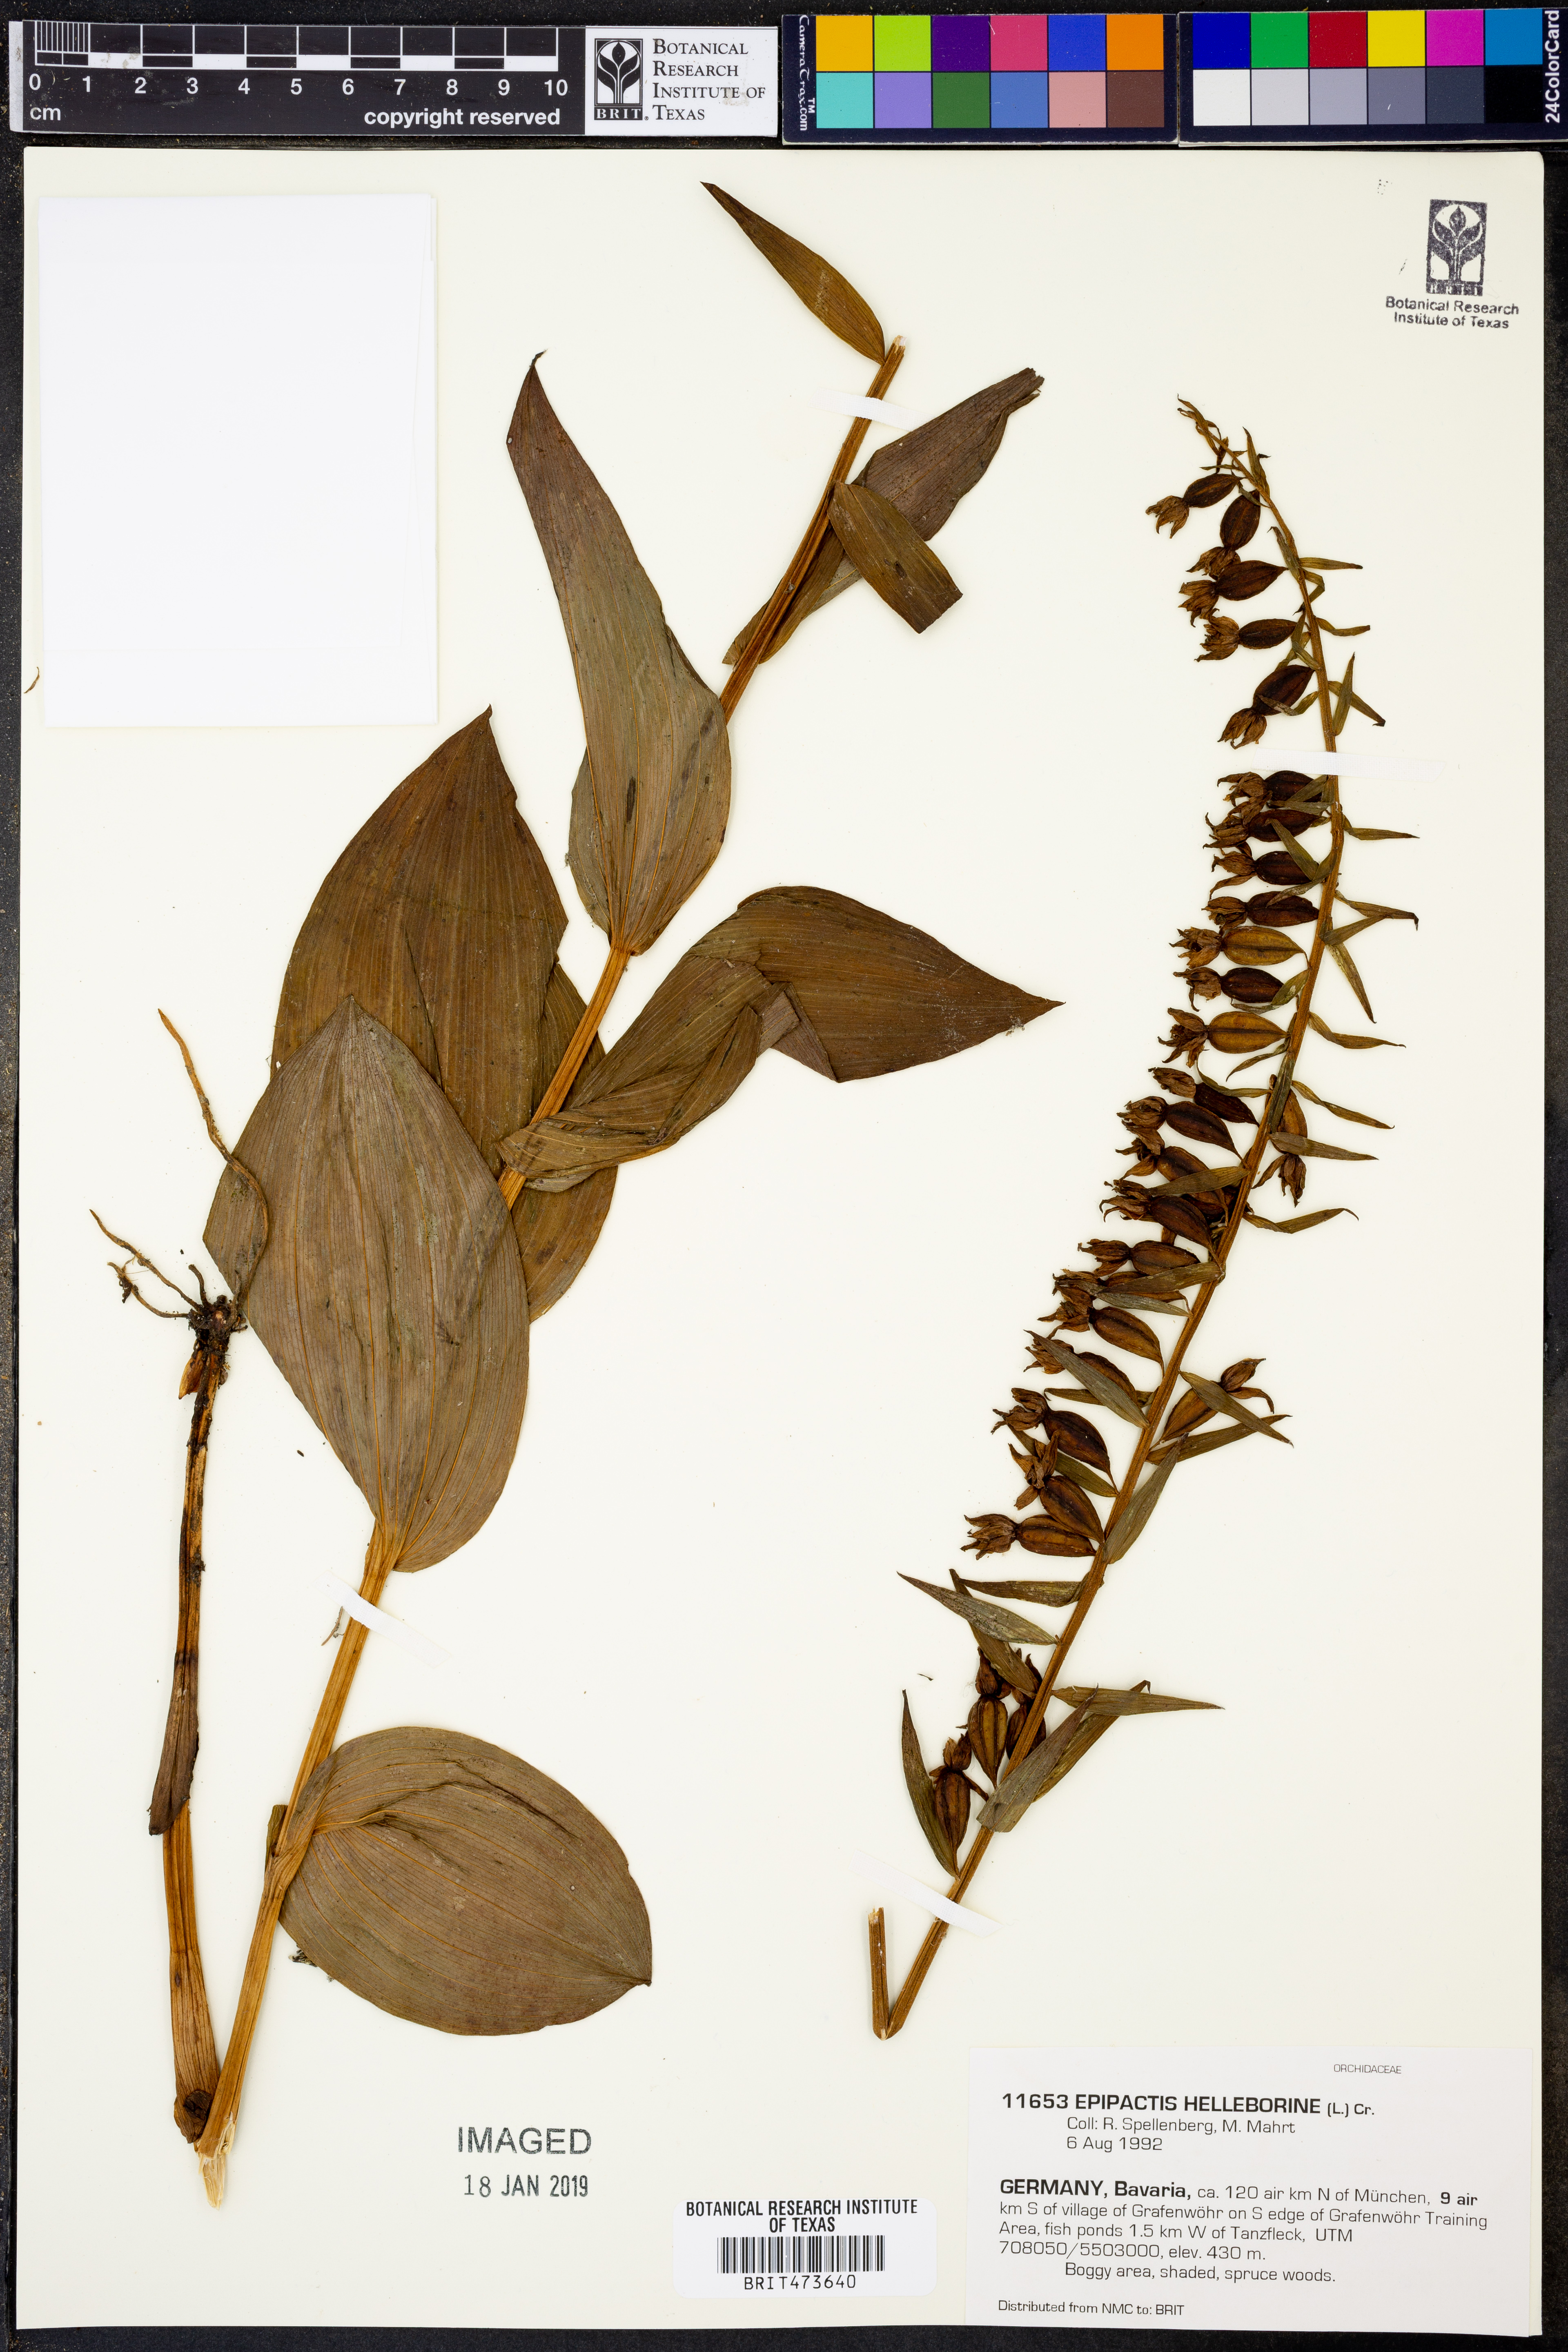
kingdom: Plantae
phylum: Tracheophyta
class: Liliopsida
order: Asparagales
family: Orchidaceae
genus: Epipactis
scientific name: Epipactis helleborine
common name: Broad-leaved helleborine
